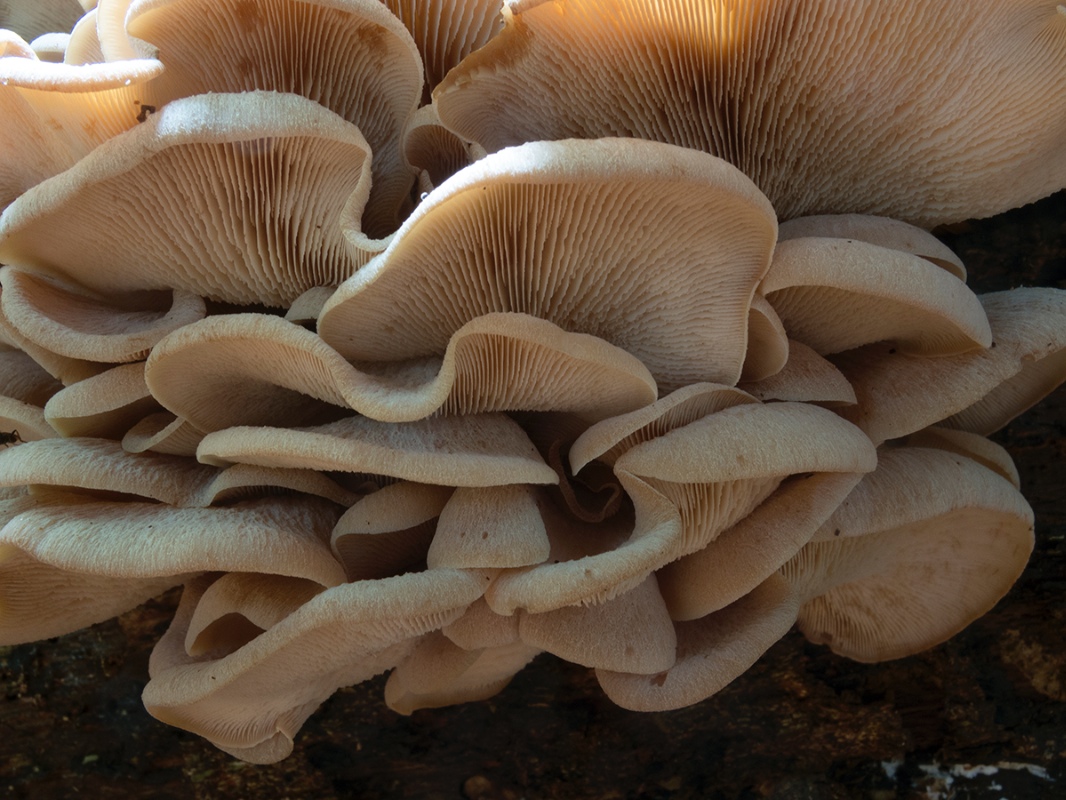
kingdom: Fungi
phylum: Basidiomycota
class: Agaricomycetes
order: Russulales
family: Auriscalpiaceae
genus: Lentinellus
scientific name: Lentinellus ursinus
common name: børstehåret savbladhat
